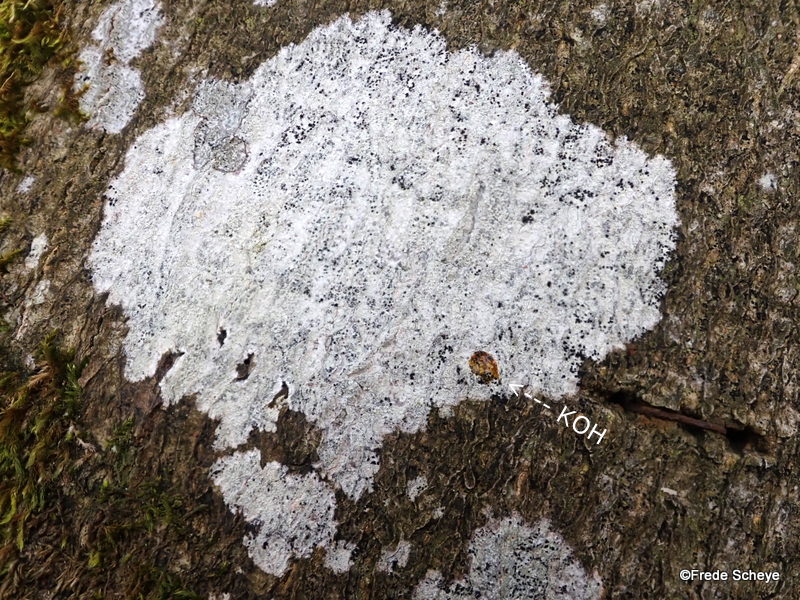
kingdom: Fungi
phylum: Ascomycota
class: Lecanoromycetes
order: Ostropales
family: Phlyctidaceae
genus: Phlyctis
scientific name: Phlyctis argena
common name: almindelig sølvlav
